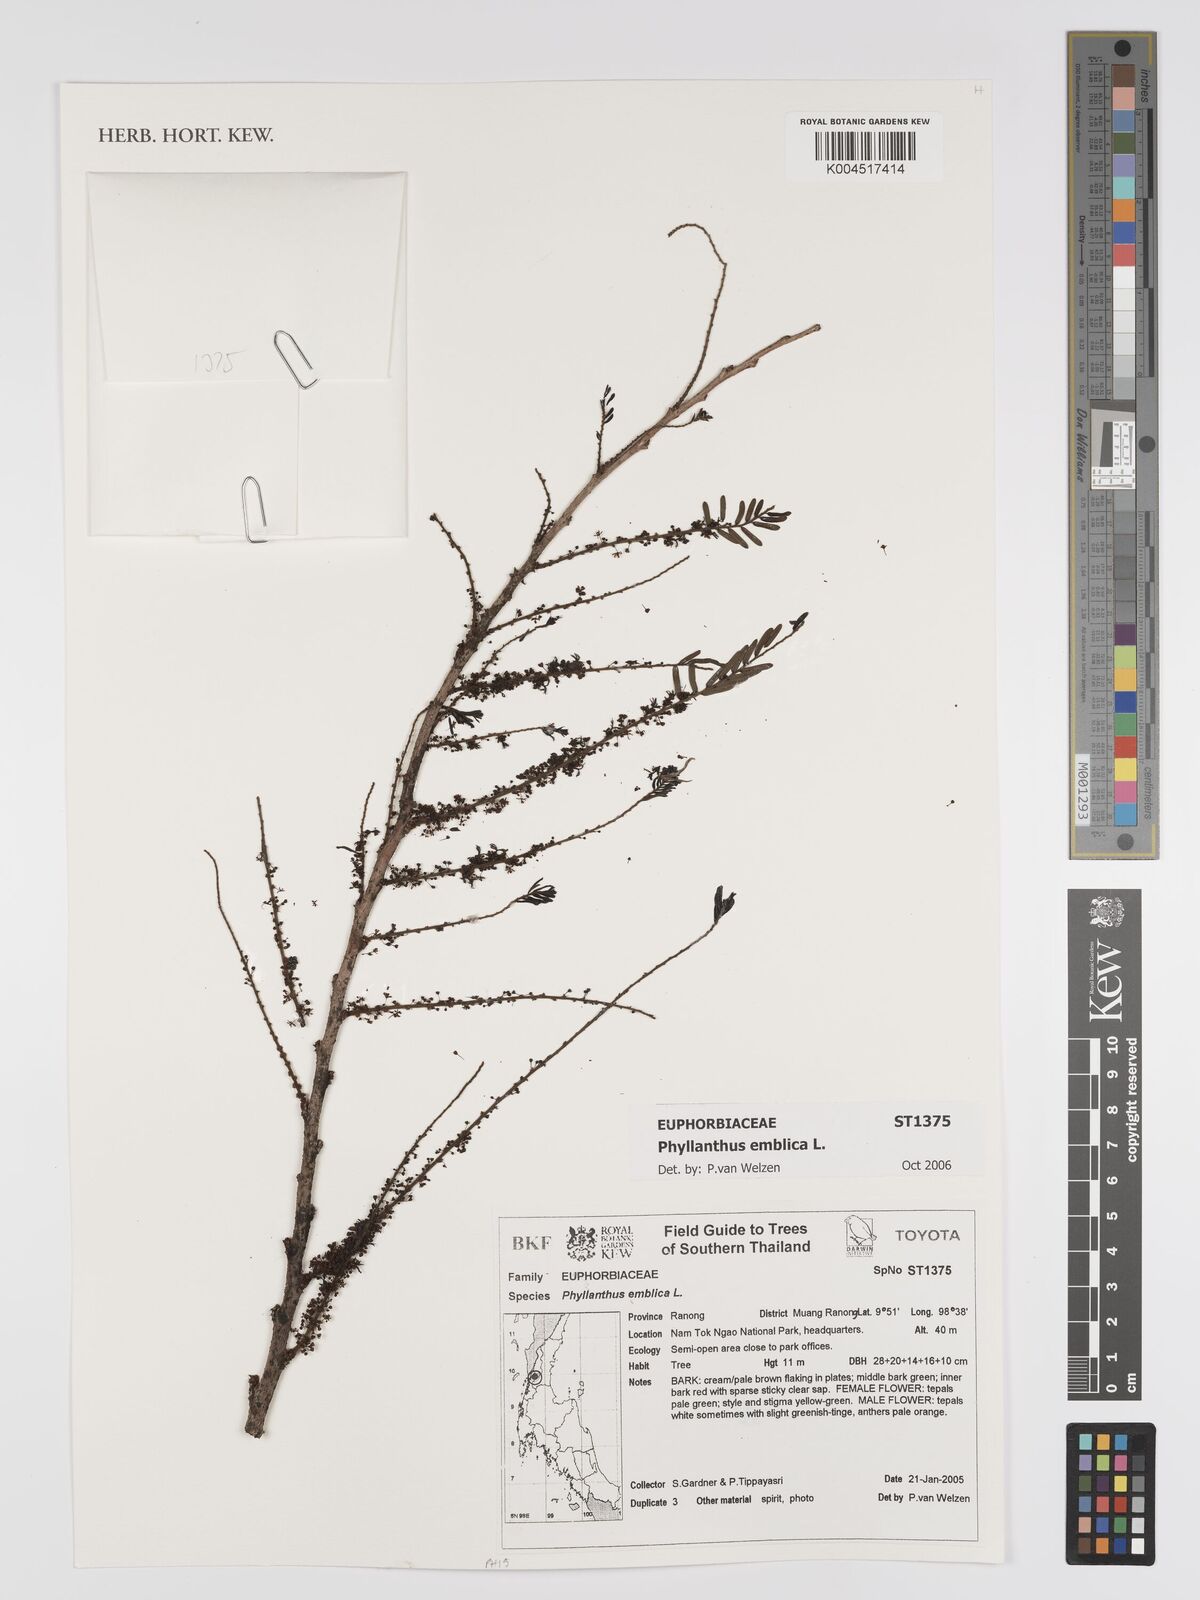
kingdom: Plantae
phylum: Tracheophyta
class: Magnoliopsida
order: Malpighiales
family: Phyllanthaceae
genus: Phyllanthus
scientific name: Phyllanthus emblica
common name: Indian gooseberry
